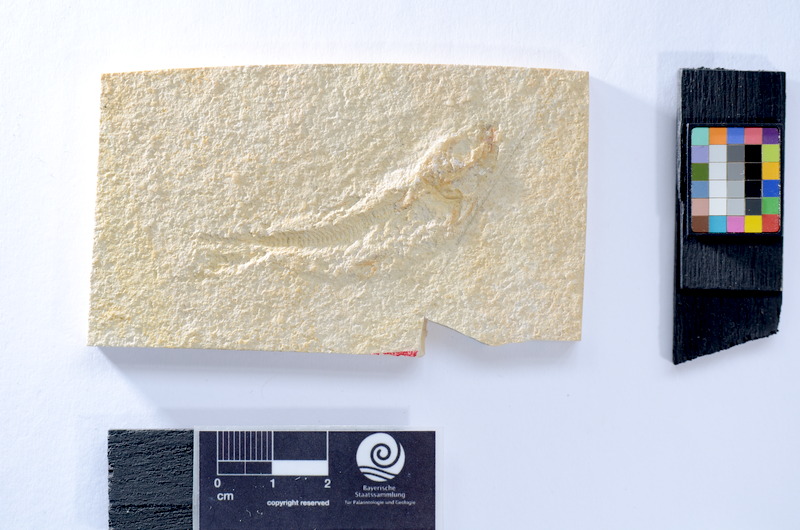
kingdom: Animalia
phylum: Chordata
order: Salmoniformes
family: Orthogonikleithridae
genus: Leptolepides
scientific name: Leptolepides
